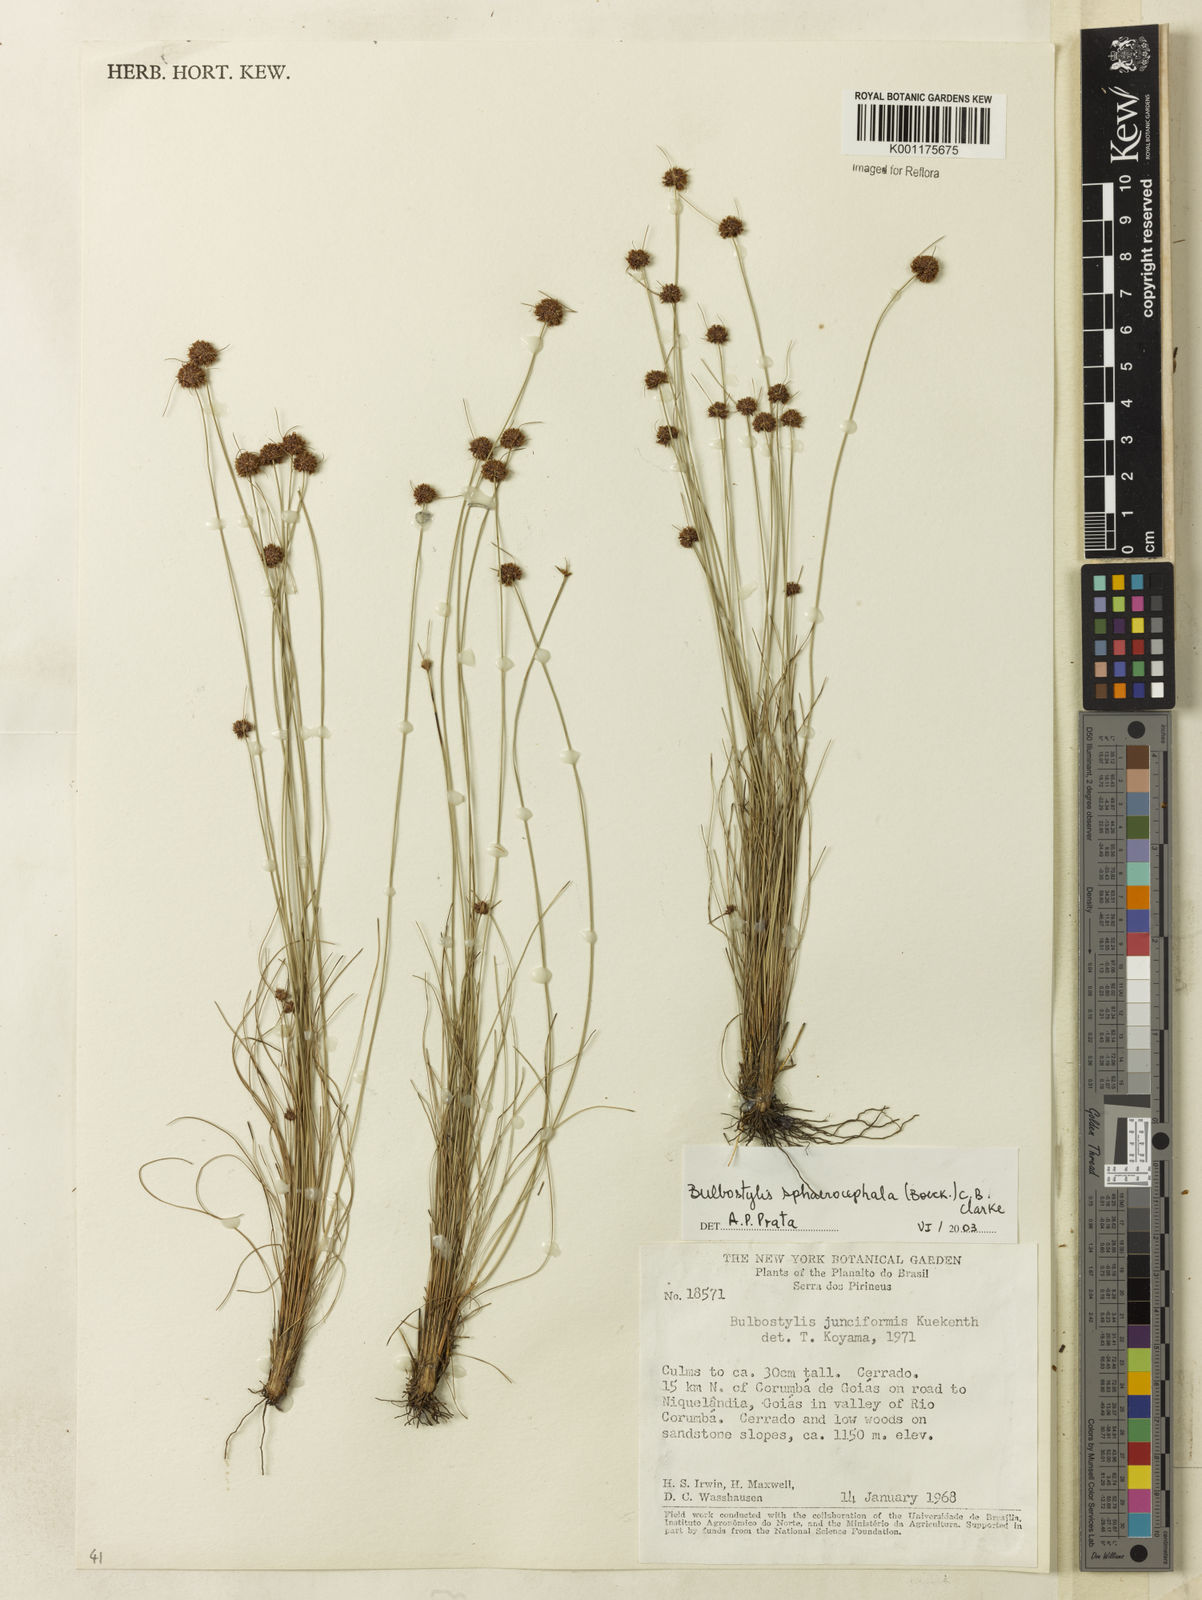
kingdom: Plantae
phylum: Tracheophyta
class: Liliopsida
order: Poales
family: Cyperaceae
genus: Bulbostylis
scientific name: Bulbostylis sphaerocephala
